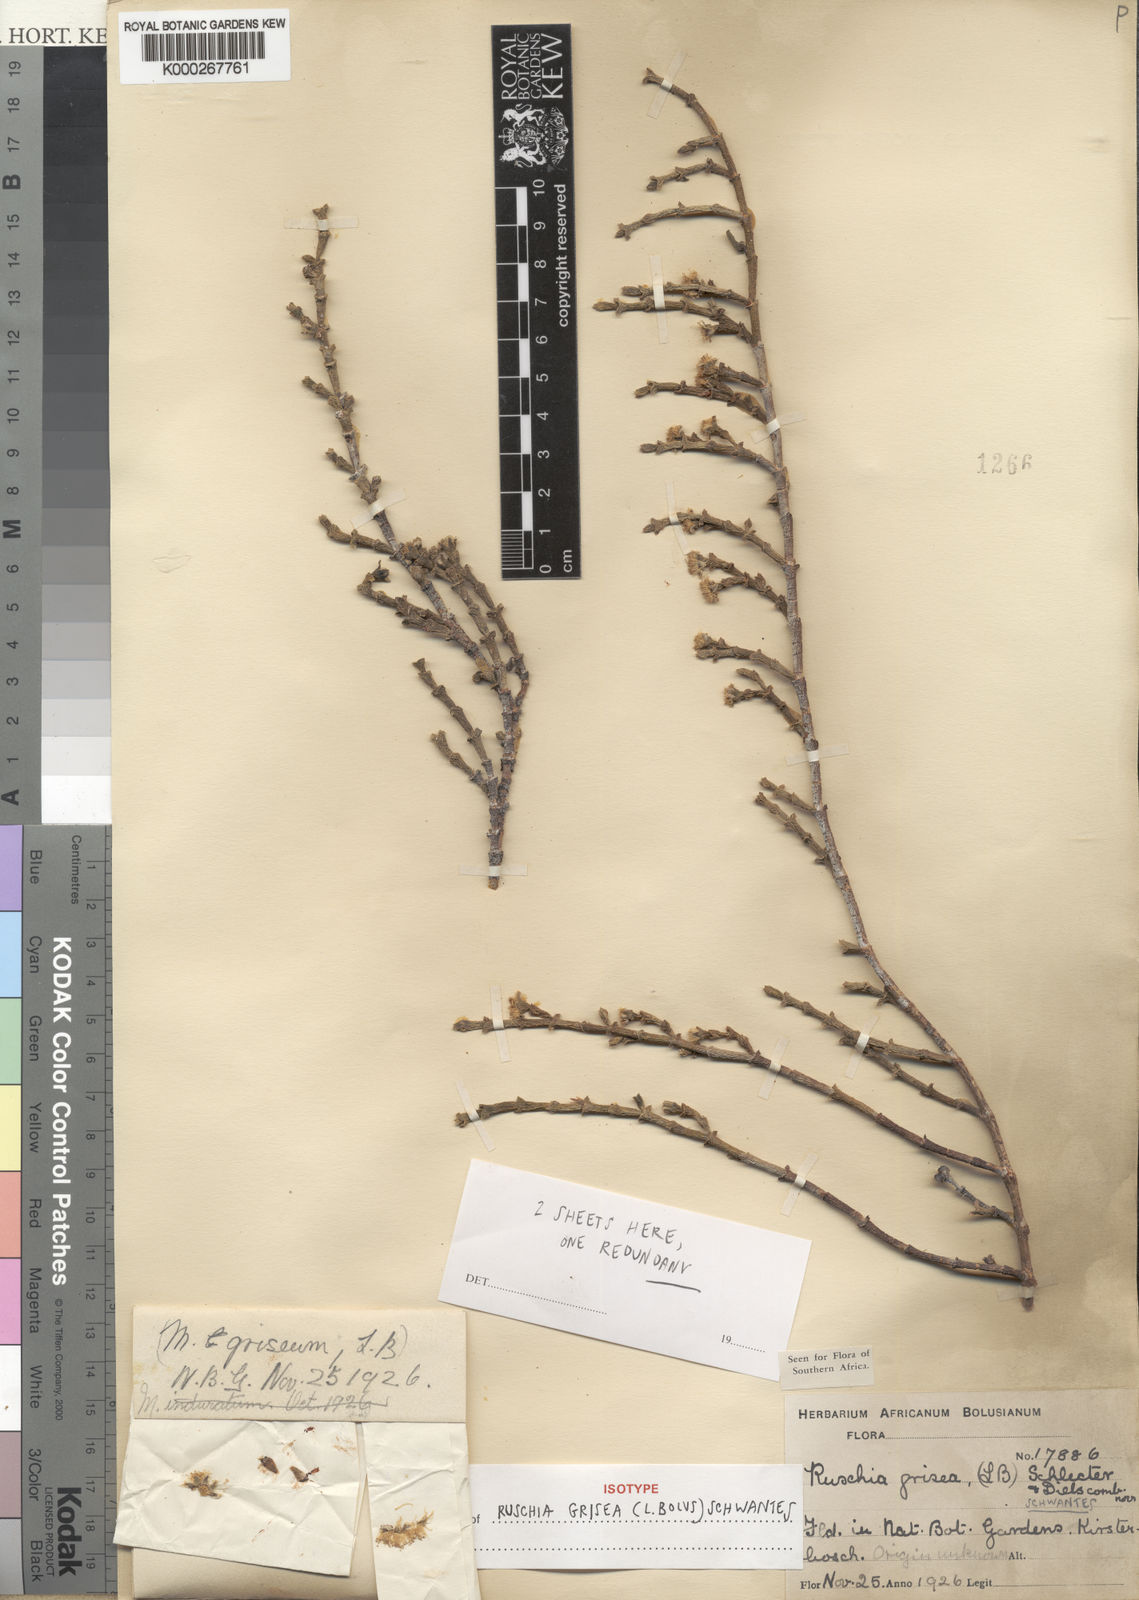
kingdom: Plantae
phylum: Tracheophyta
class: Magnoliopsida
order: Caryophyllales
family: Aizoaceae
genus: Ruschia
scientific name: Ruschia grisea
